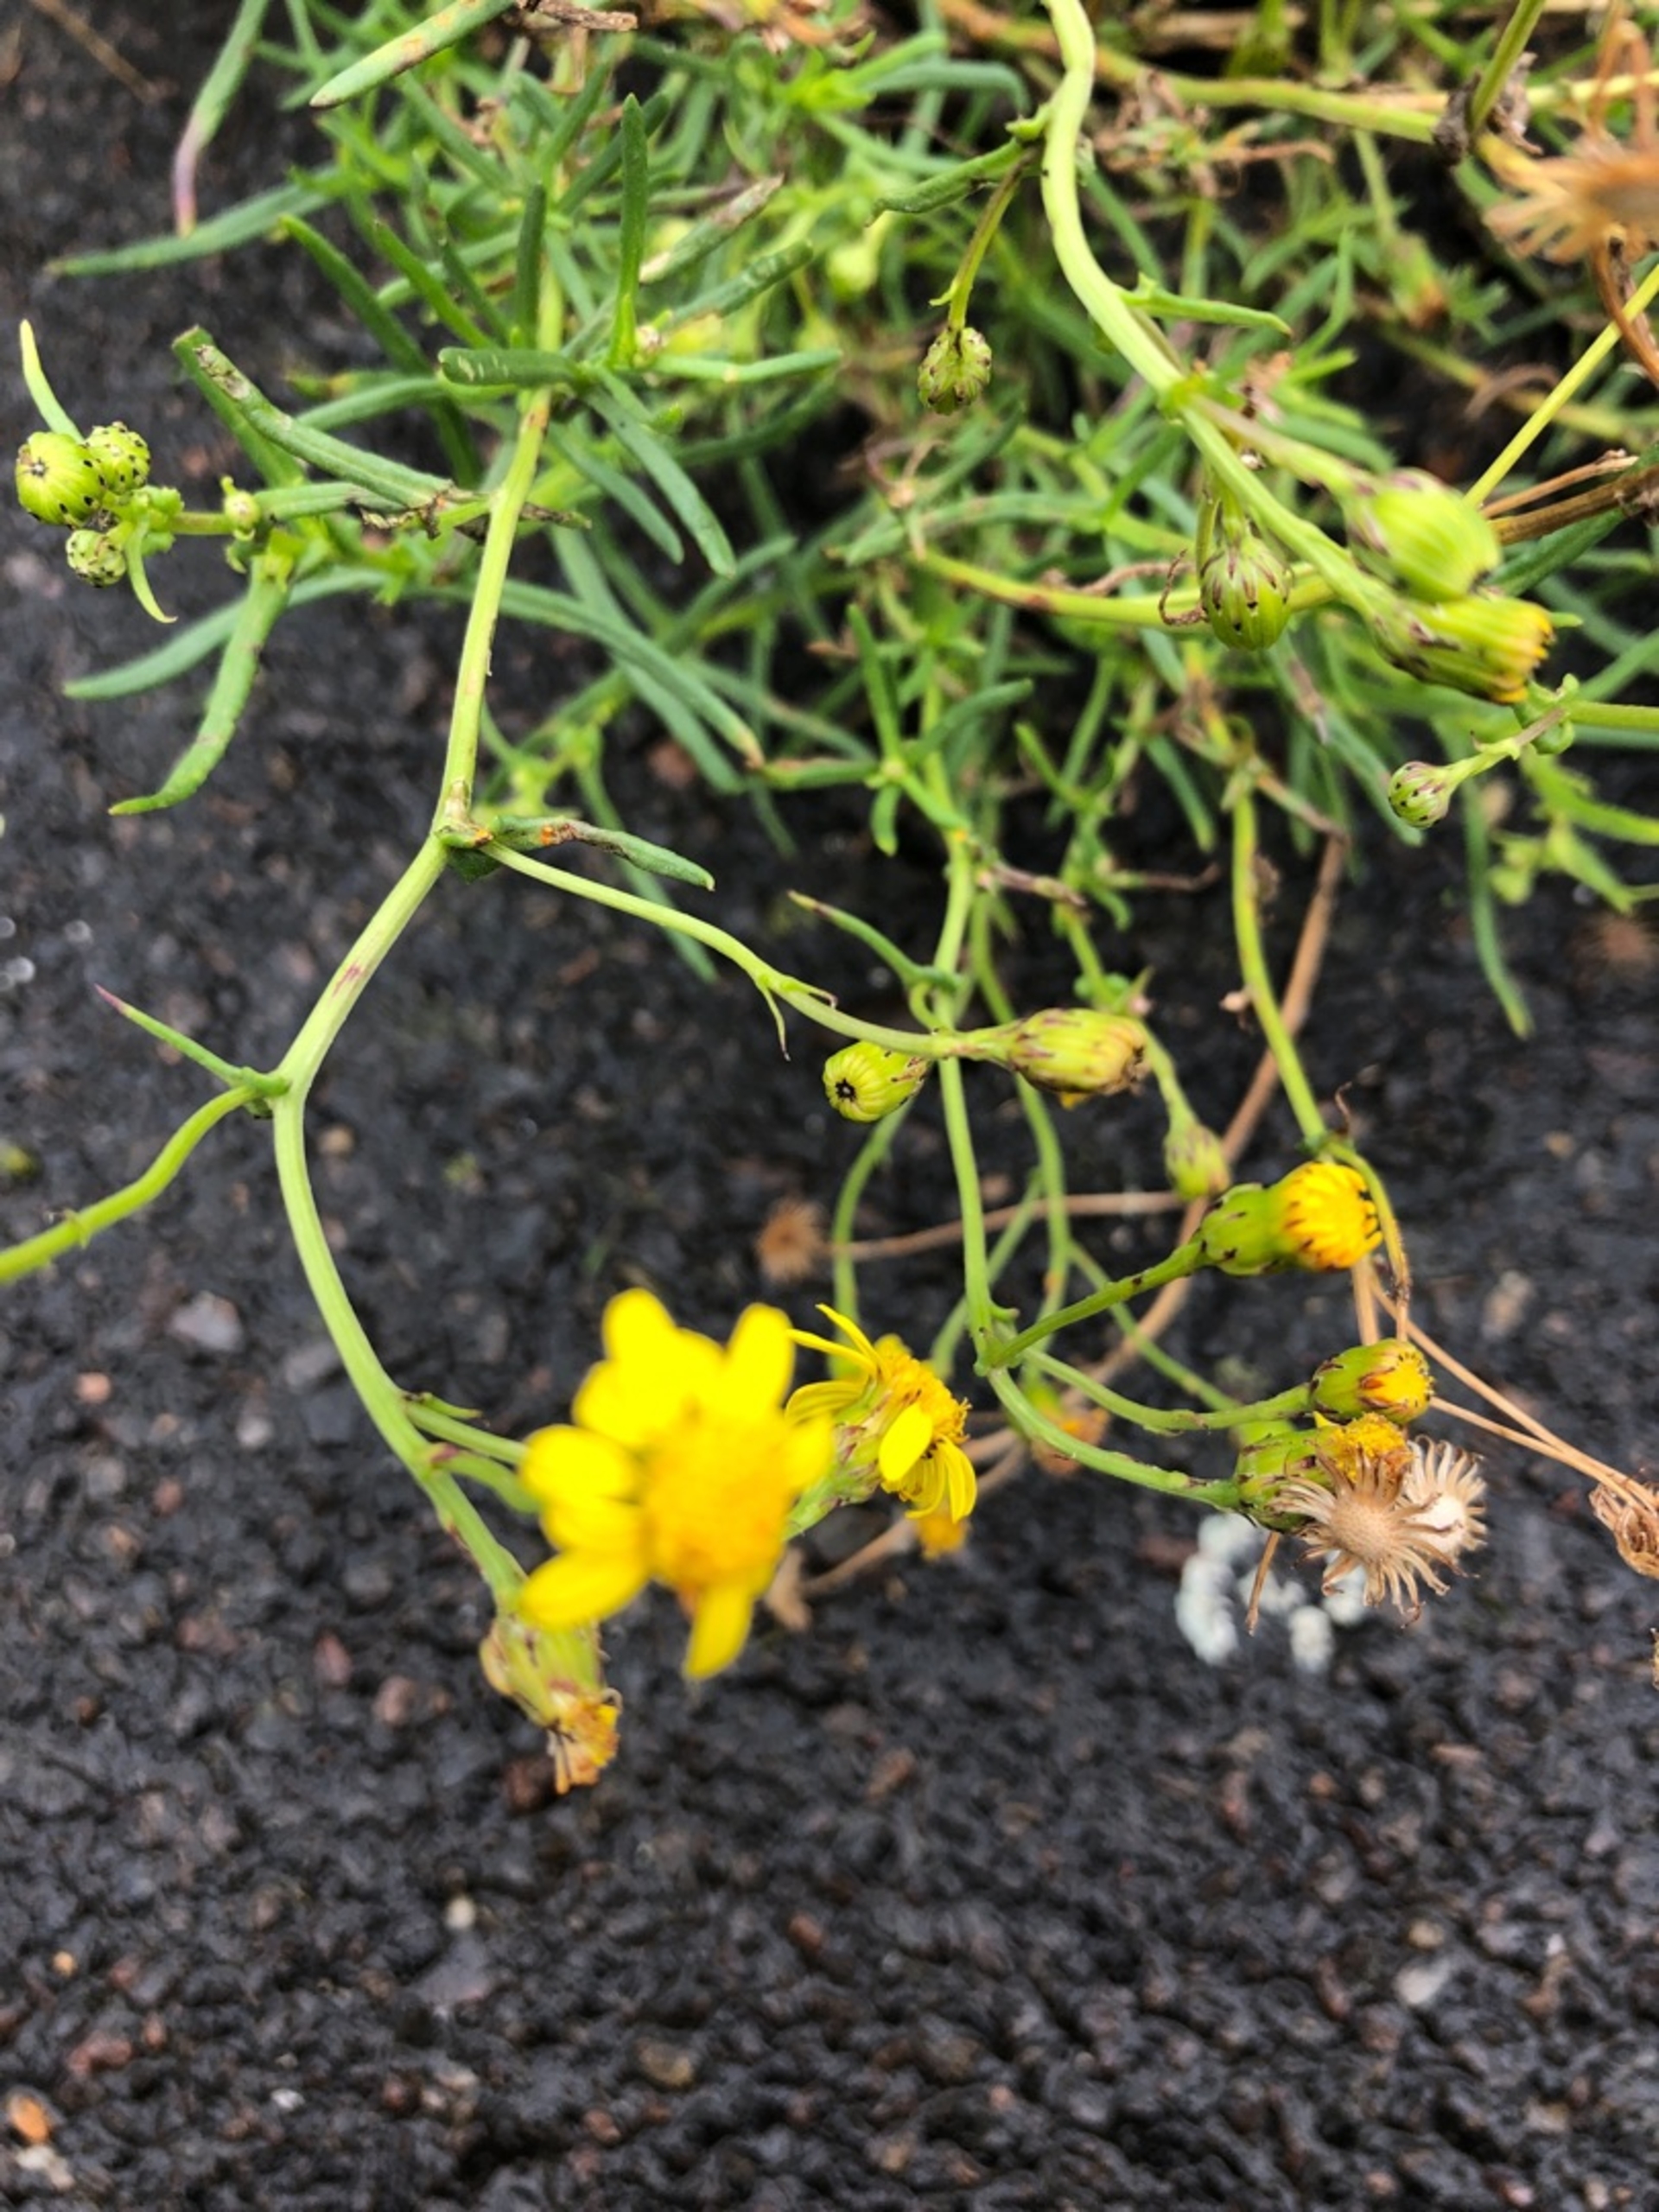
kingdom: Plantae
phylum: Tracheophyta
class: Magnoliopsida
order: Asterales
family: Asteraceae
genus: Senecio
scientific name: Senecio inaequidens
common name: Smalbladet brandbæger
